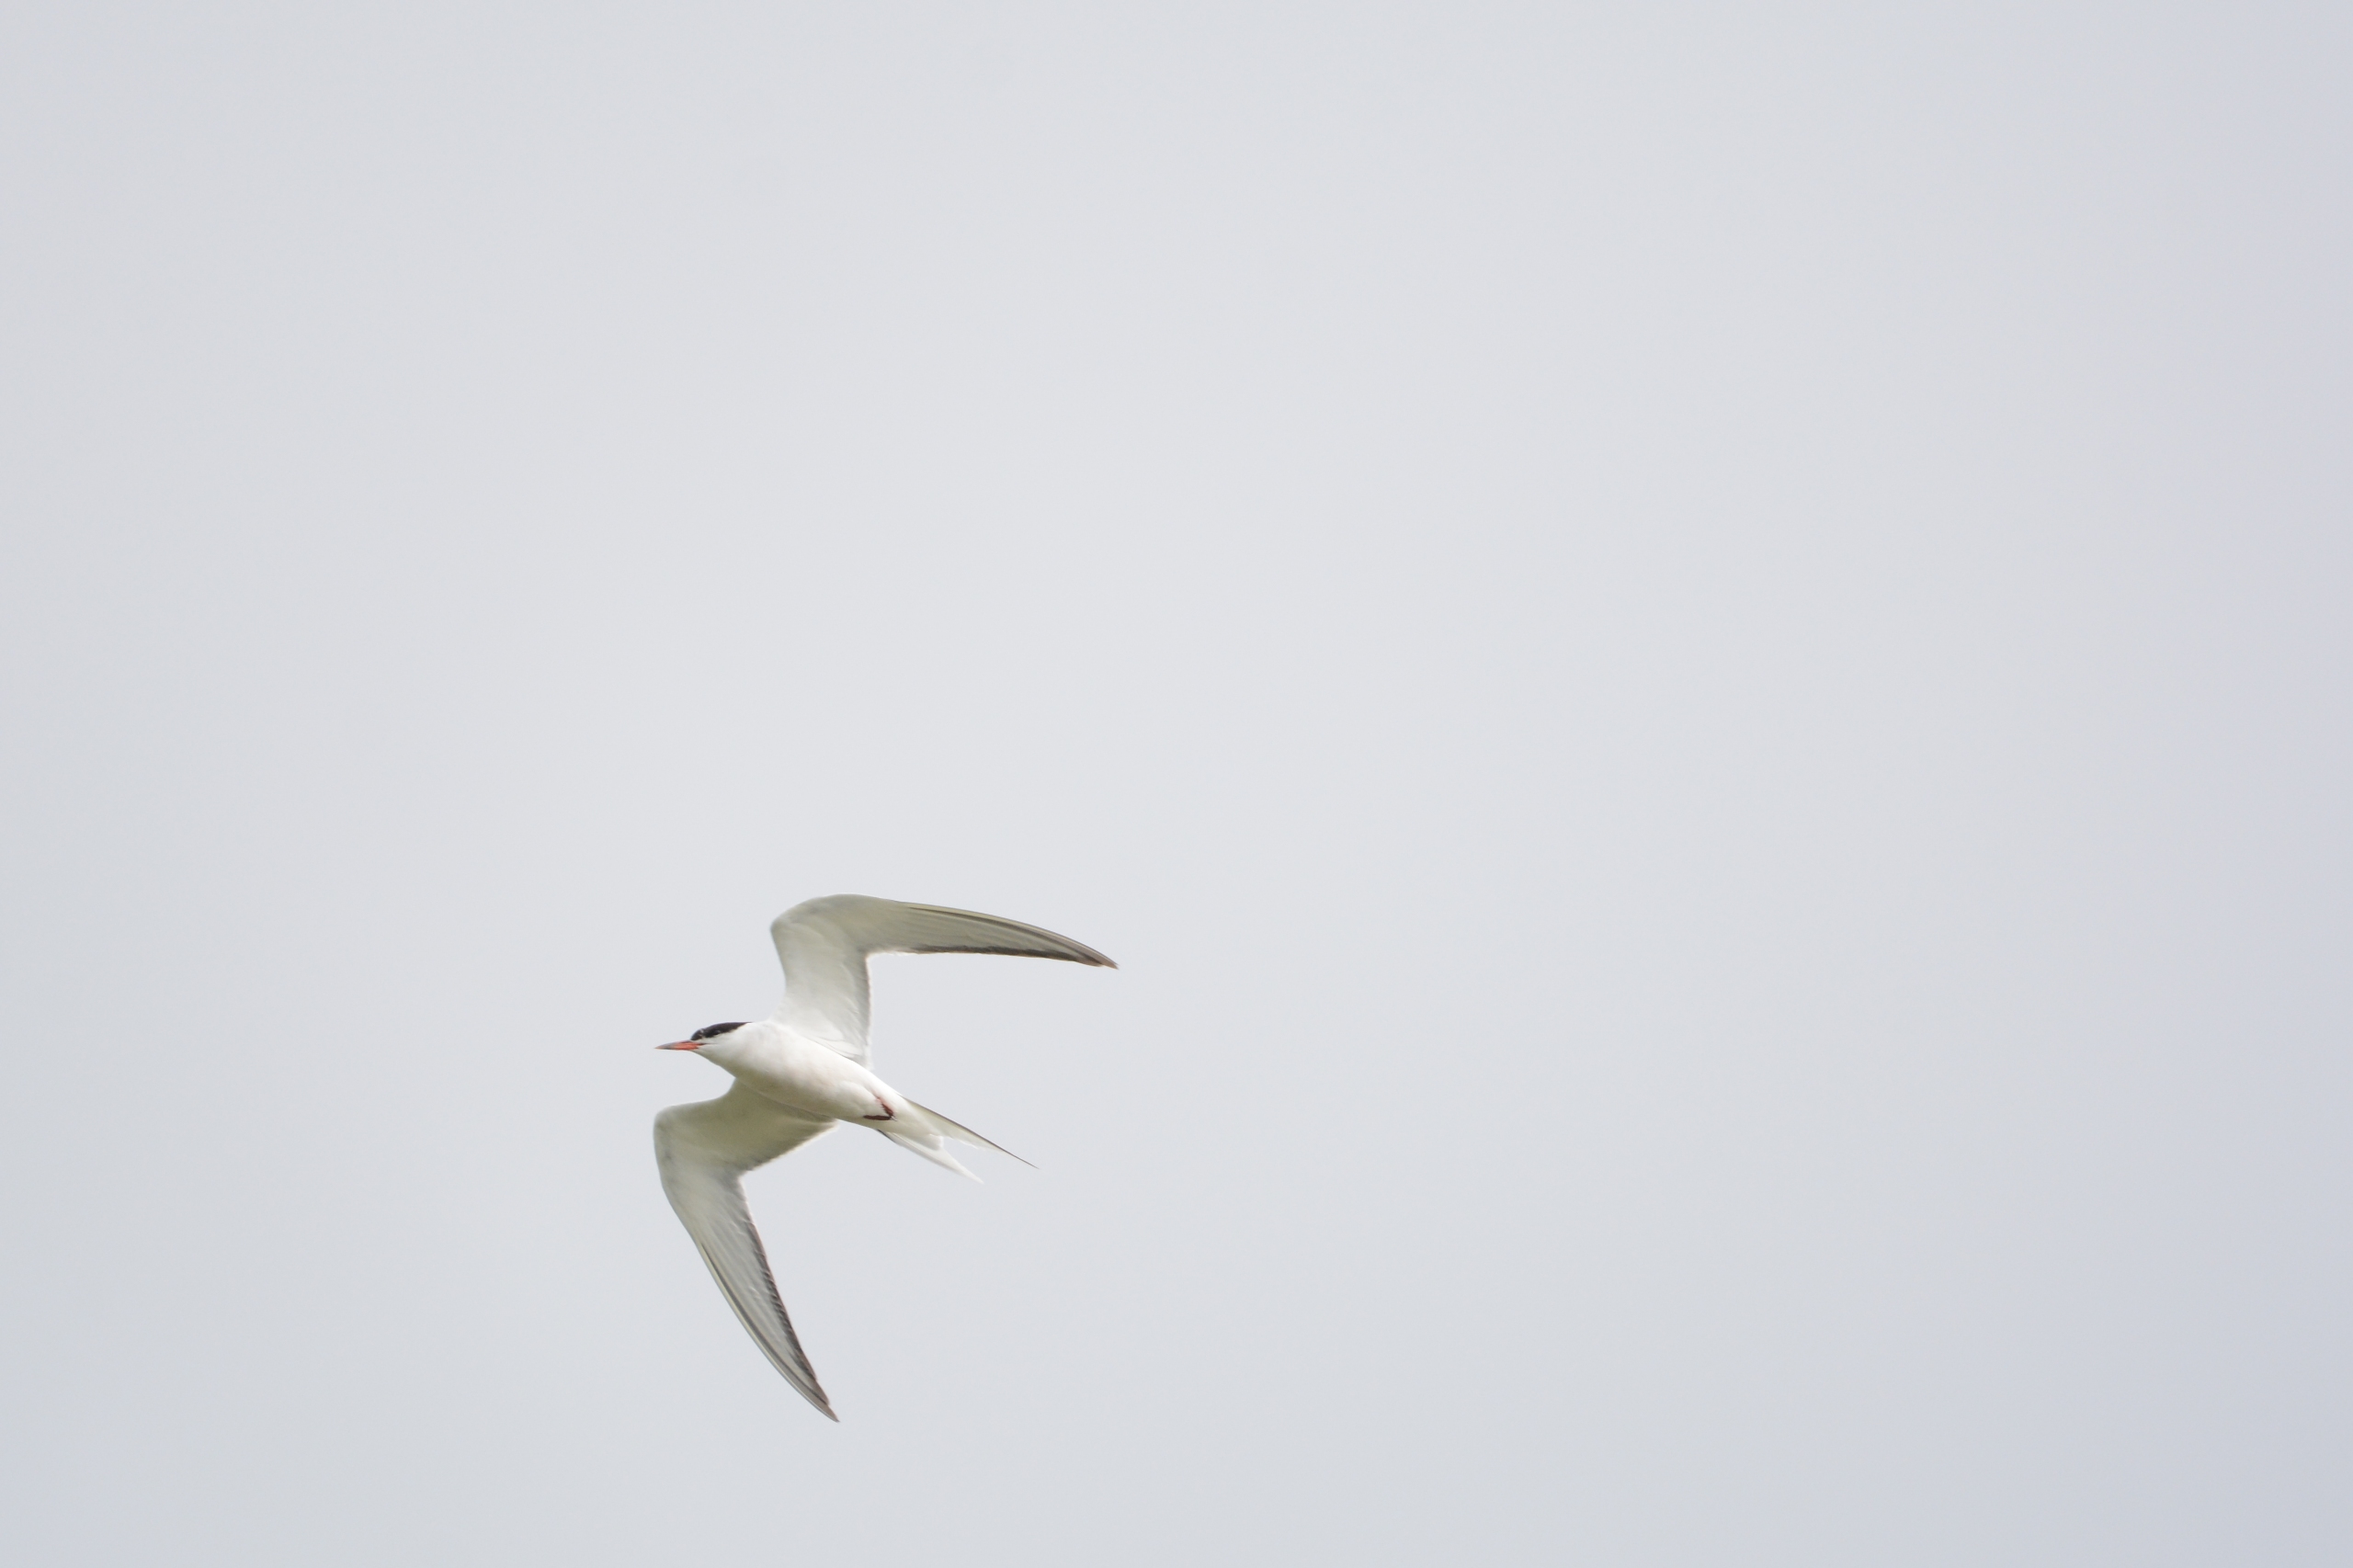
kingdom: Animalia
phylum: Chordata
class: Aves
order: Charadriiformes
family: Laridae
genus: Sterna
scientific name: Sterna hirundo
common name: Fjordterne
